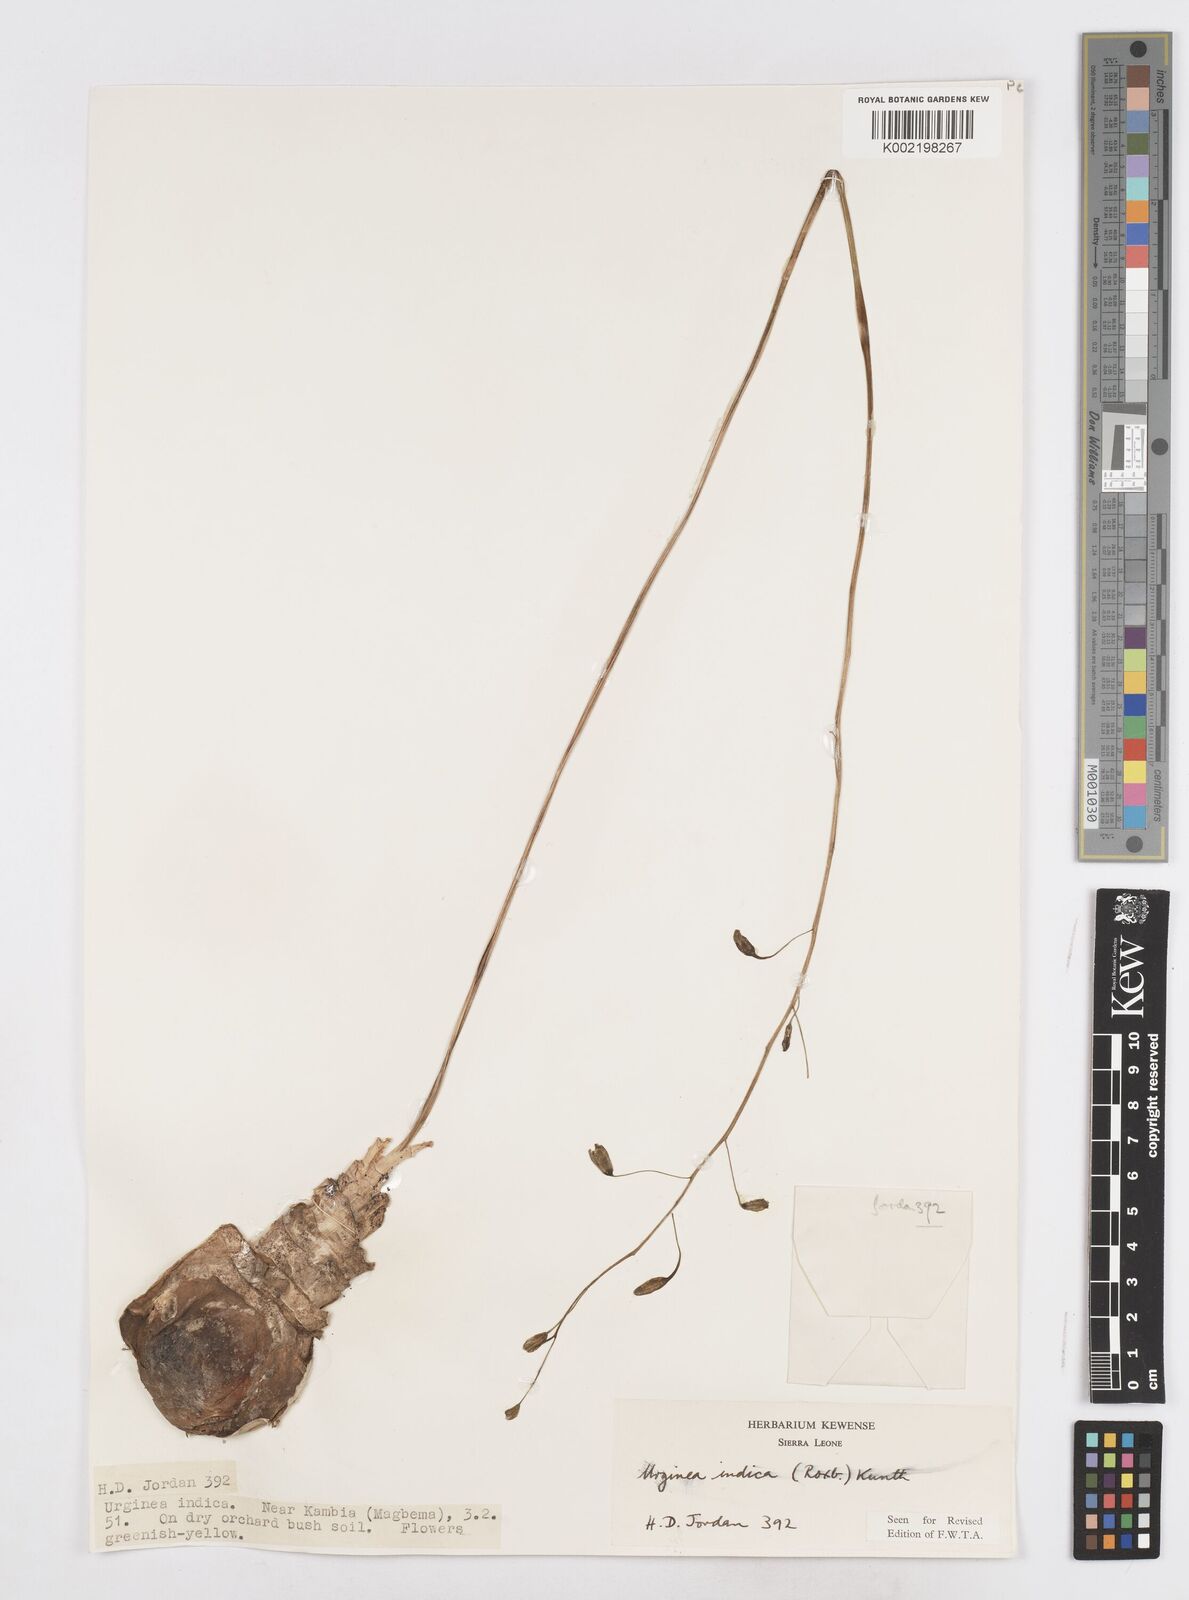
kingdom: Plantae
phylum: Tracheophyta
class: Liliopsida
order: Asparagales
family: Asparagaceae
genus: Drimia
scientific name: Drimia indica
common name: Indian-squill
